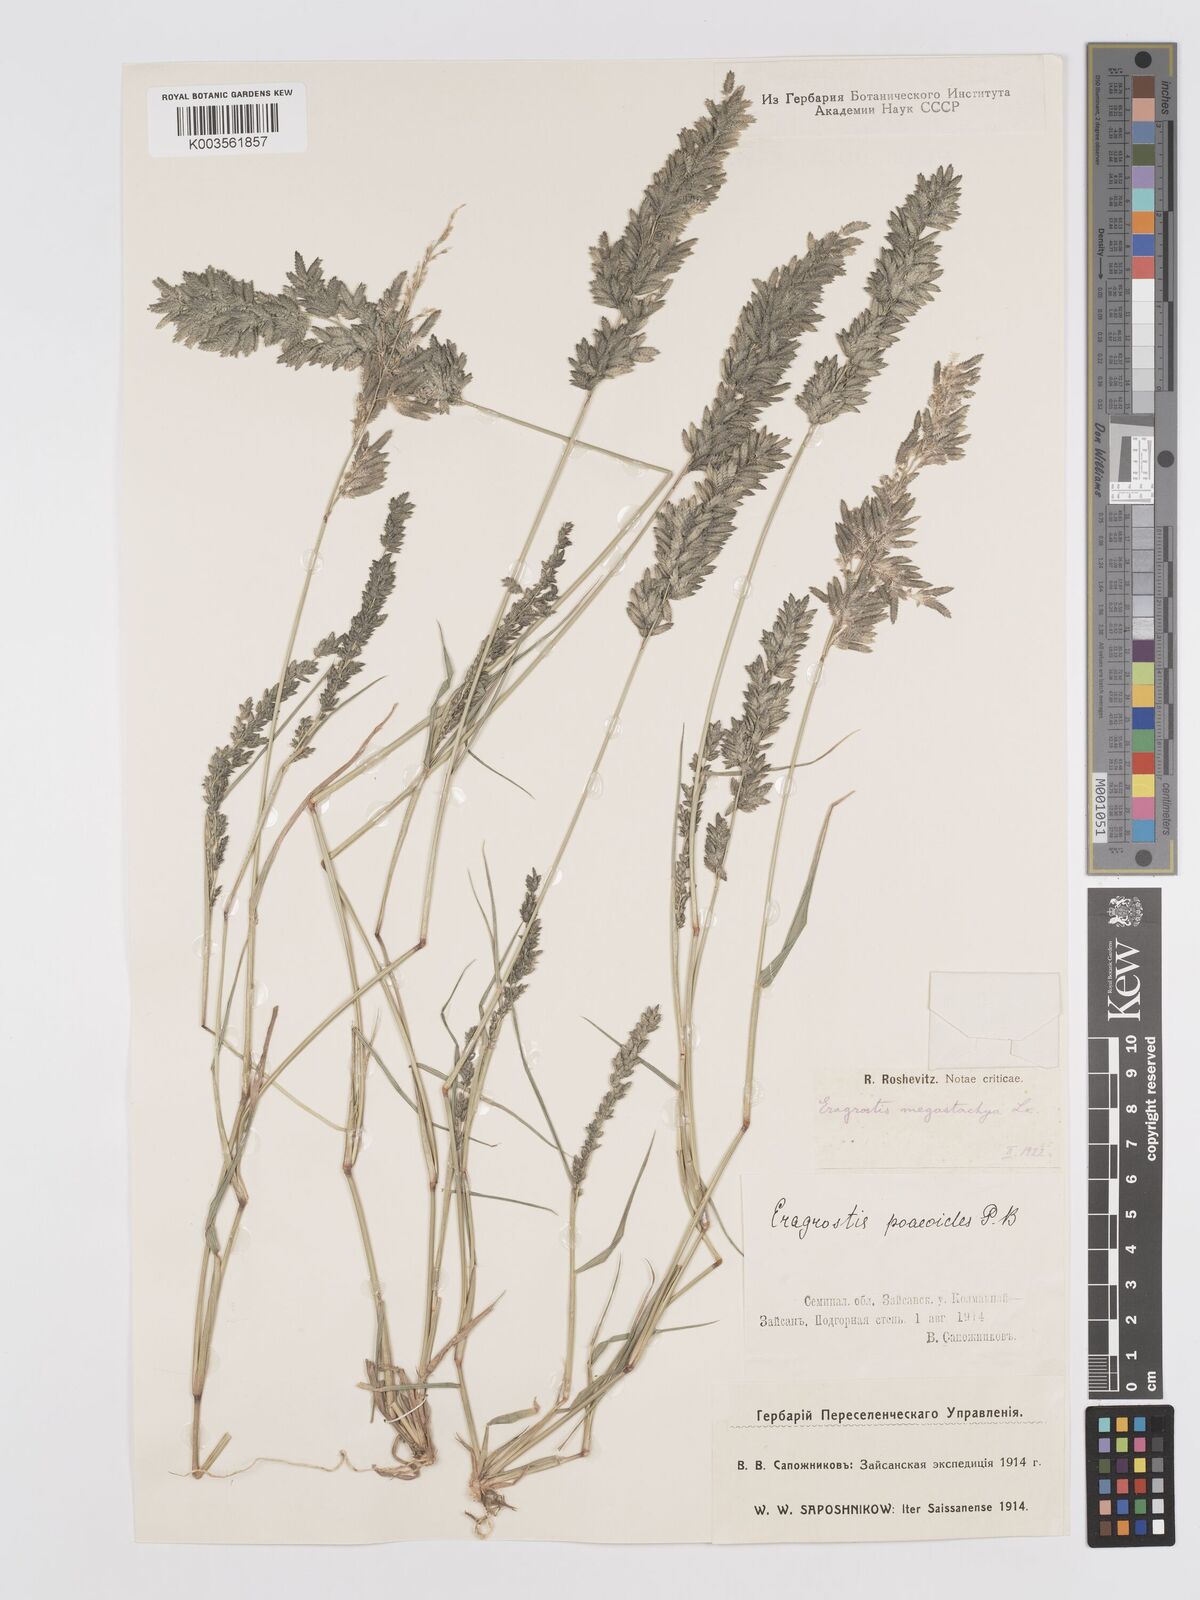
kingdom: Plantae
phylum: Tracheophyta
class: Liliopsida
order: Poales
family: Poaceae
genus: Eragrostis
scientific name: Eragrostis cilianensis
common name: Stinkgrass
